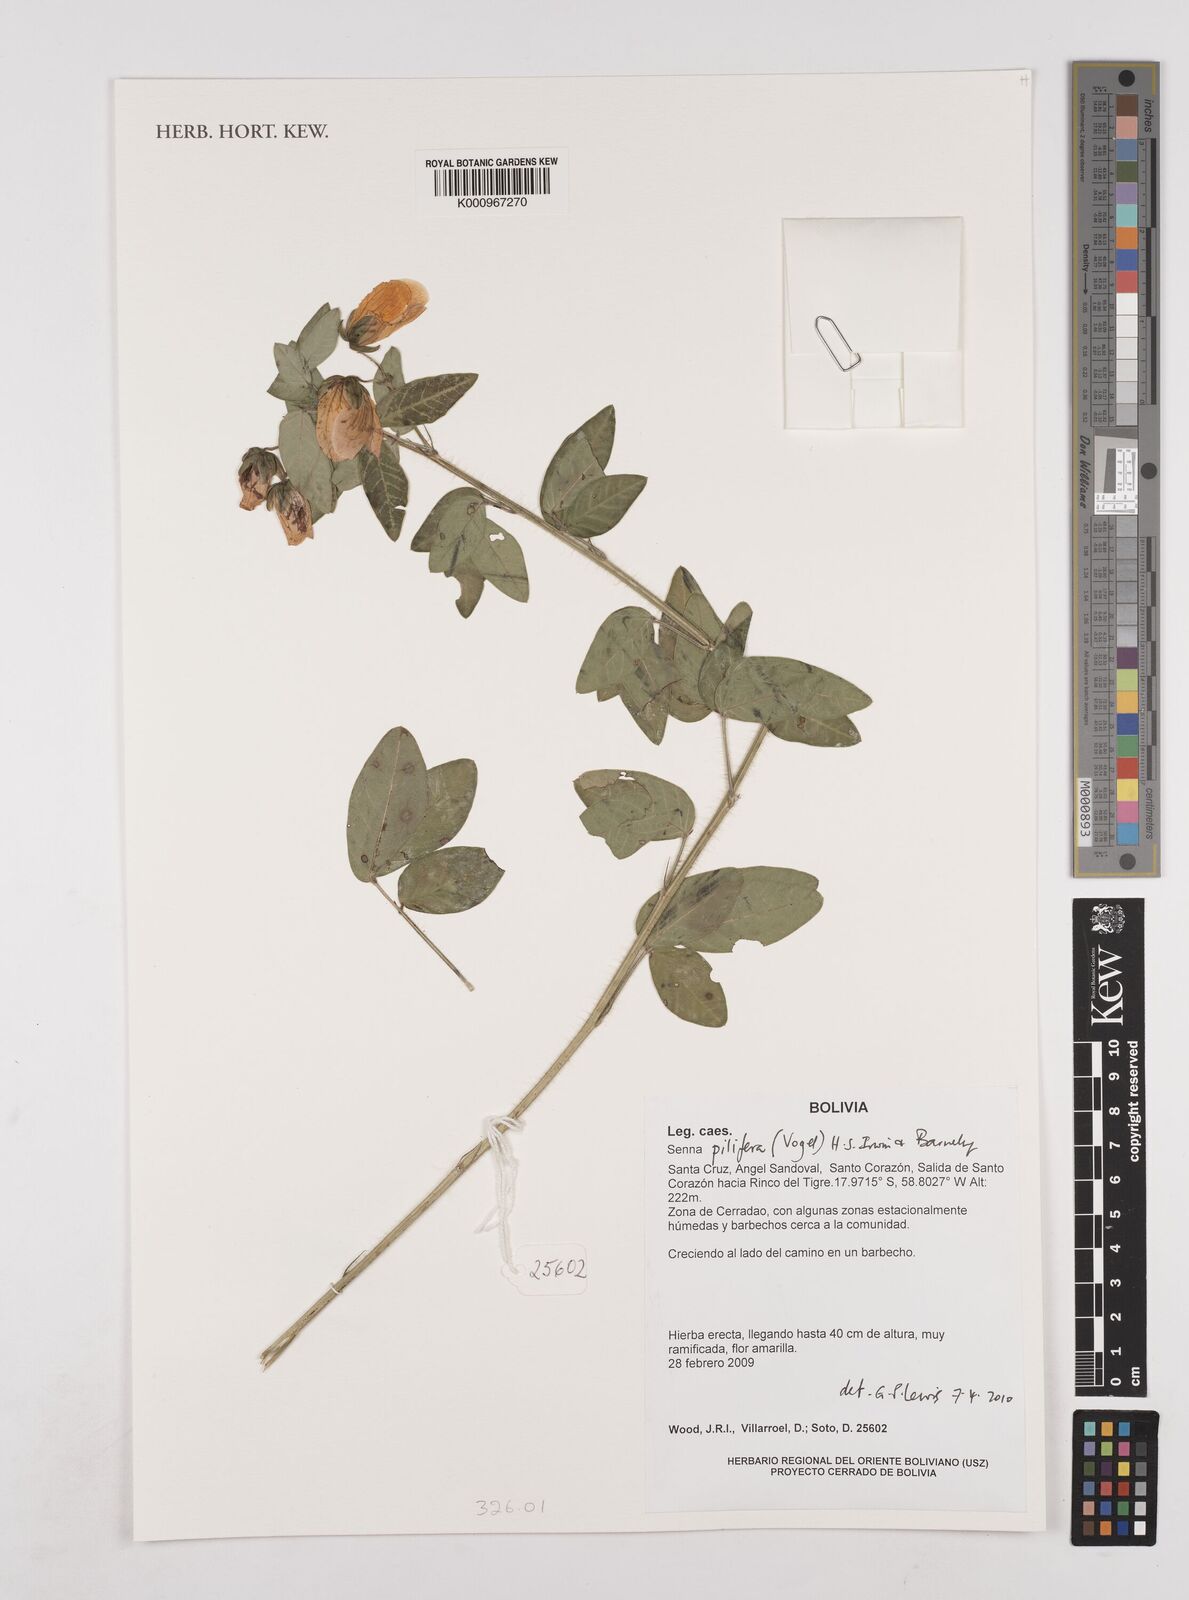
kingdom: Plantae
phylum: Tracheophyta
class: Magnoliopsida
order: Fabales
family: Fabaceae
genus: Senna
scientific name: Senna pilifera
